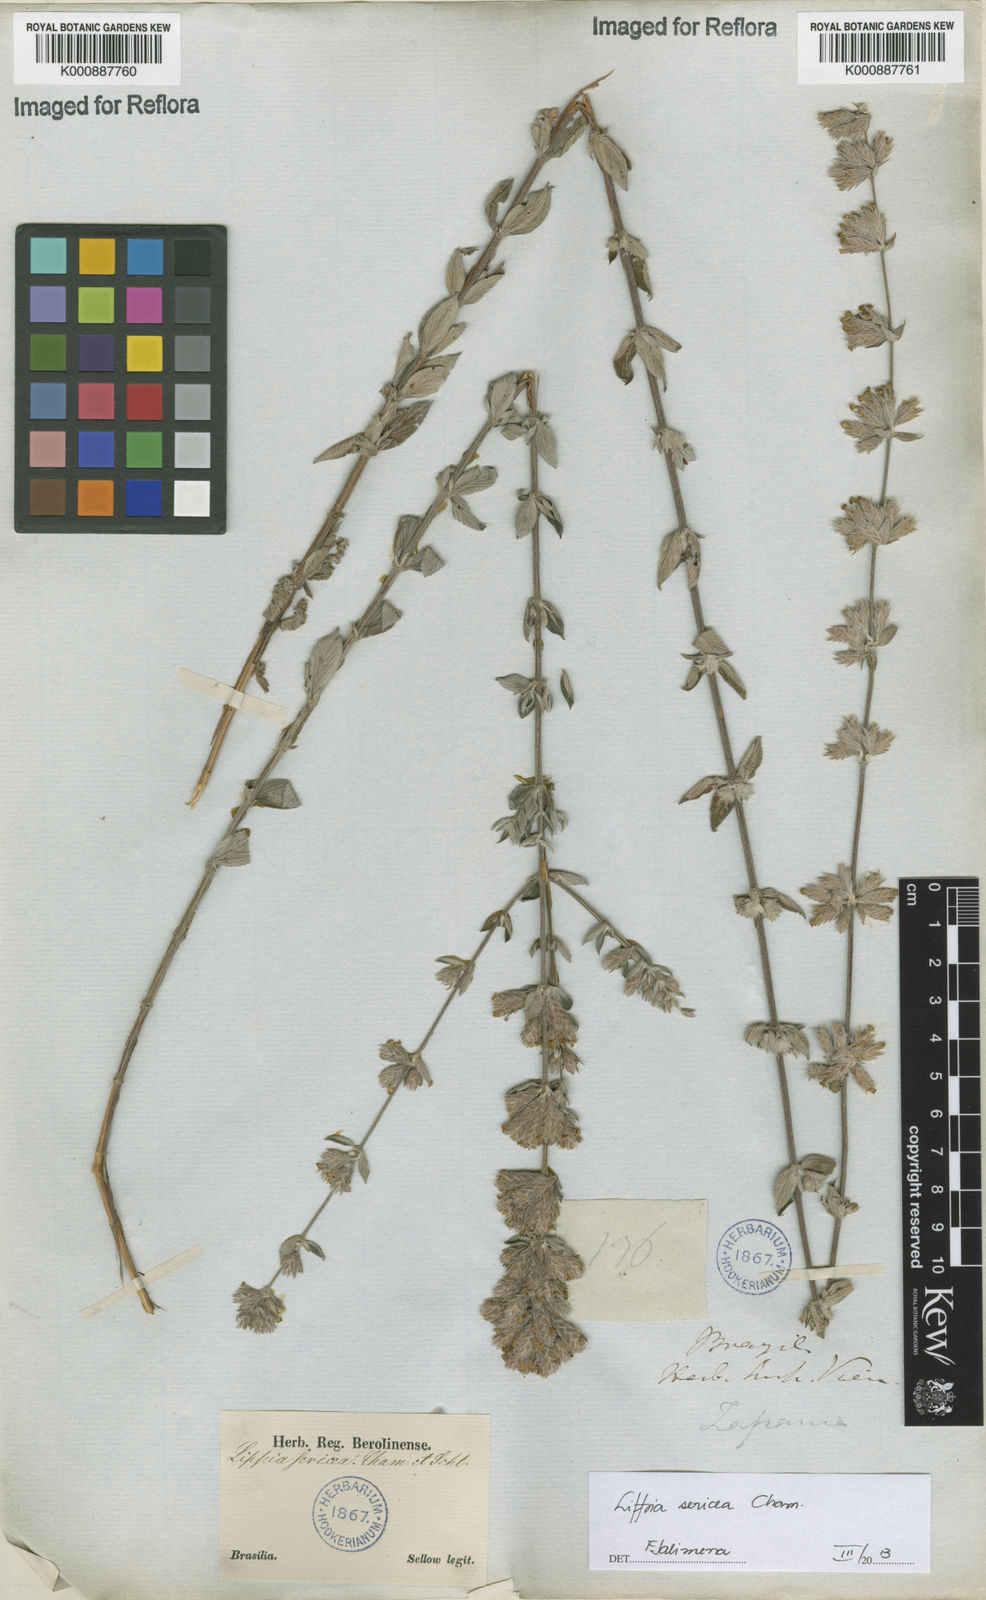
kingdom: Plantae
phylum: Tracheophyta
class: Magnoliopsida
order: Lamiales
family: Verbenaceae
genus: Lippia
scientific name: Lippia sericea
